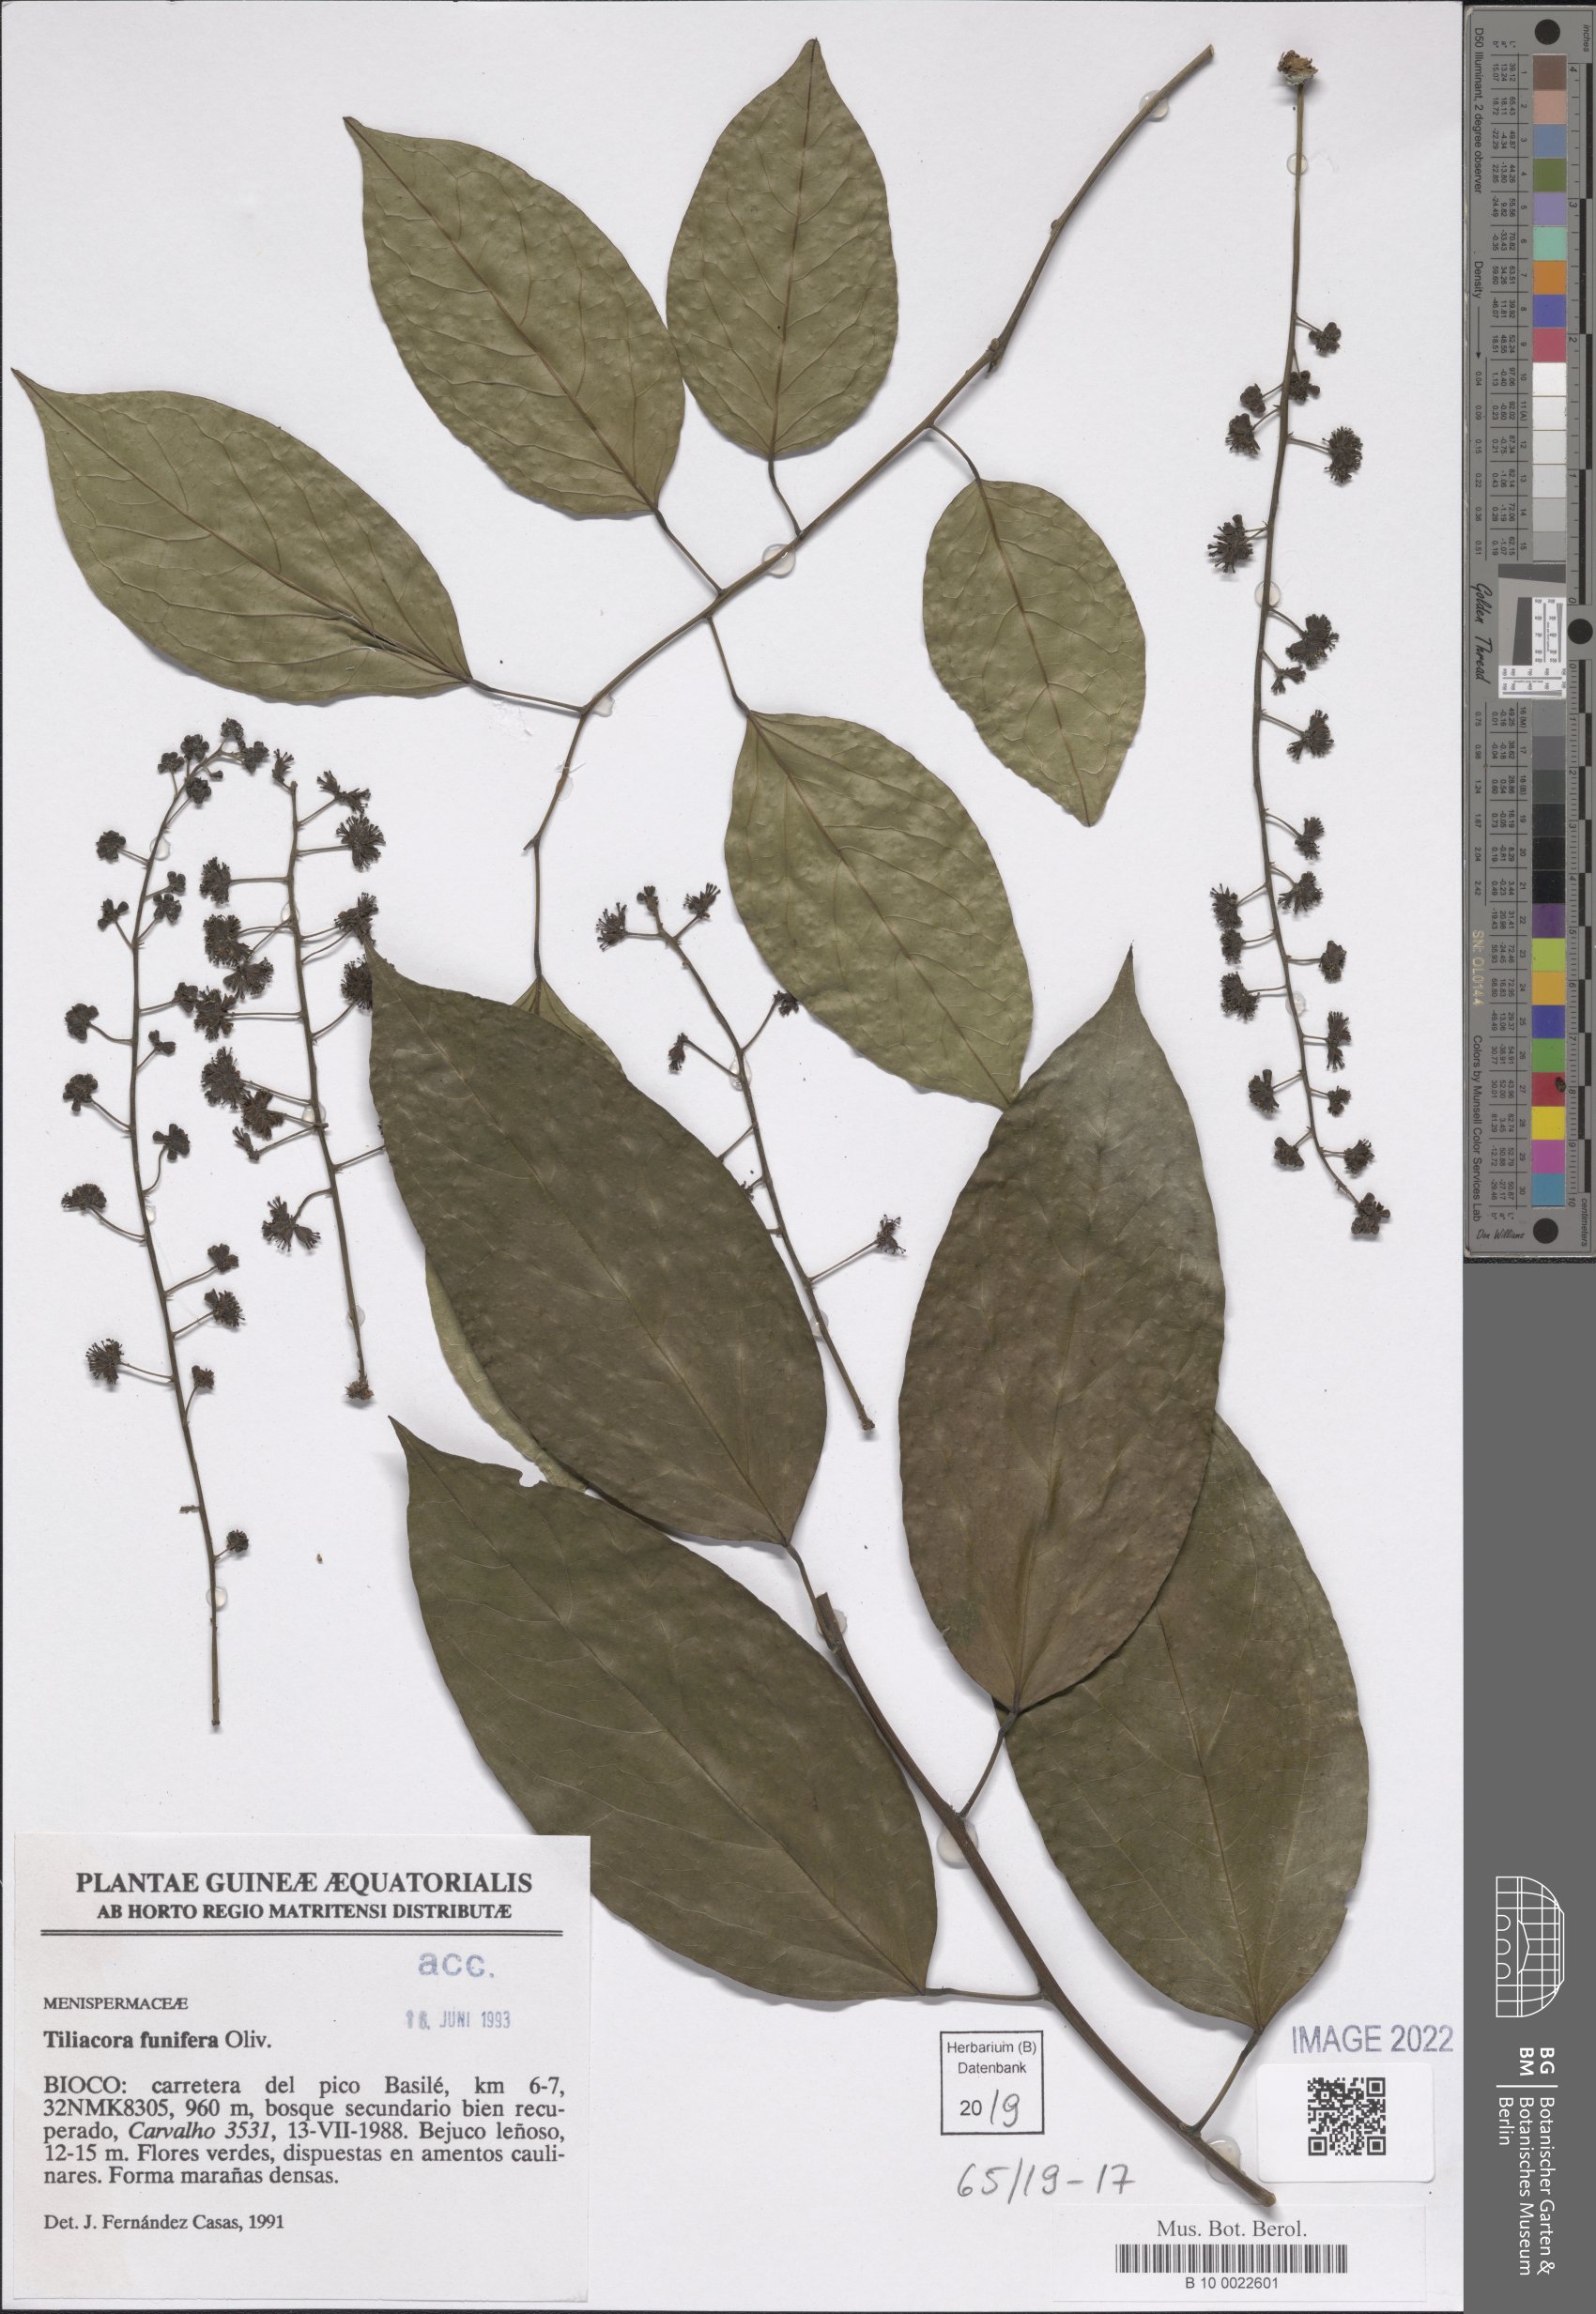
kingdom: Plantae
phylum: Tracheophyta
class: Magnoliopsida
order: Ranunculales
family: Menispermaceae
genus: Tiliacora
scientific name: Tiliacora funifera
